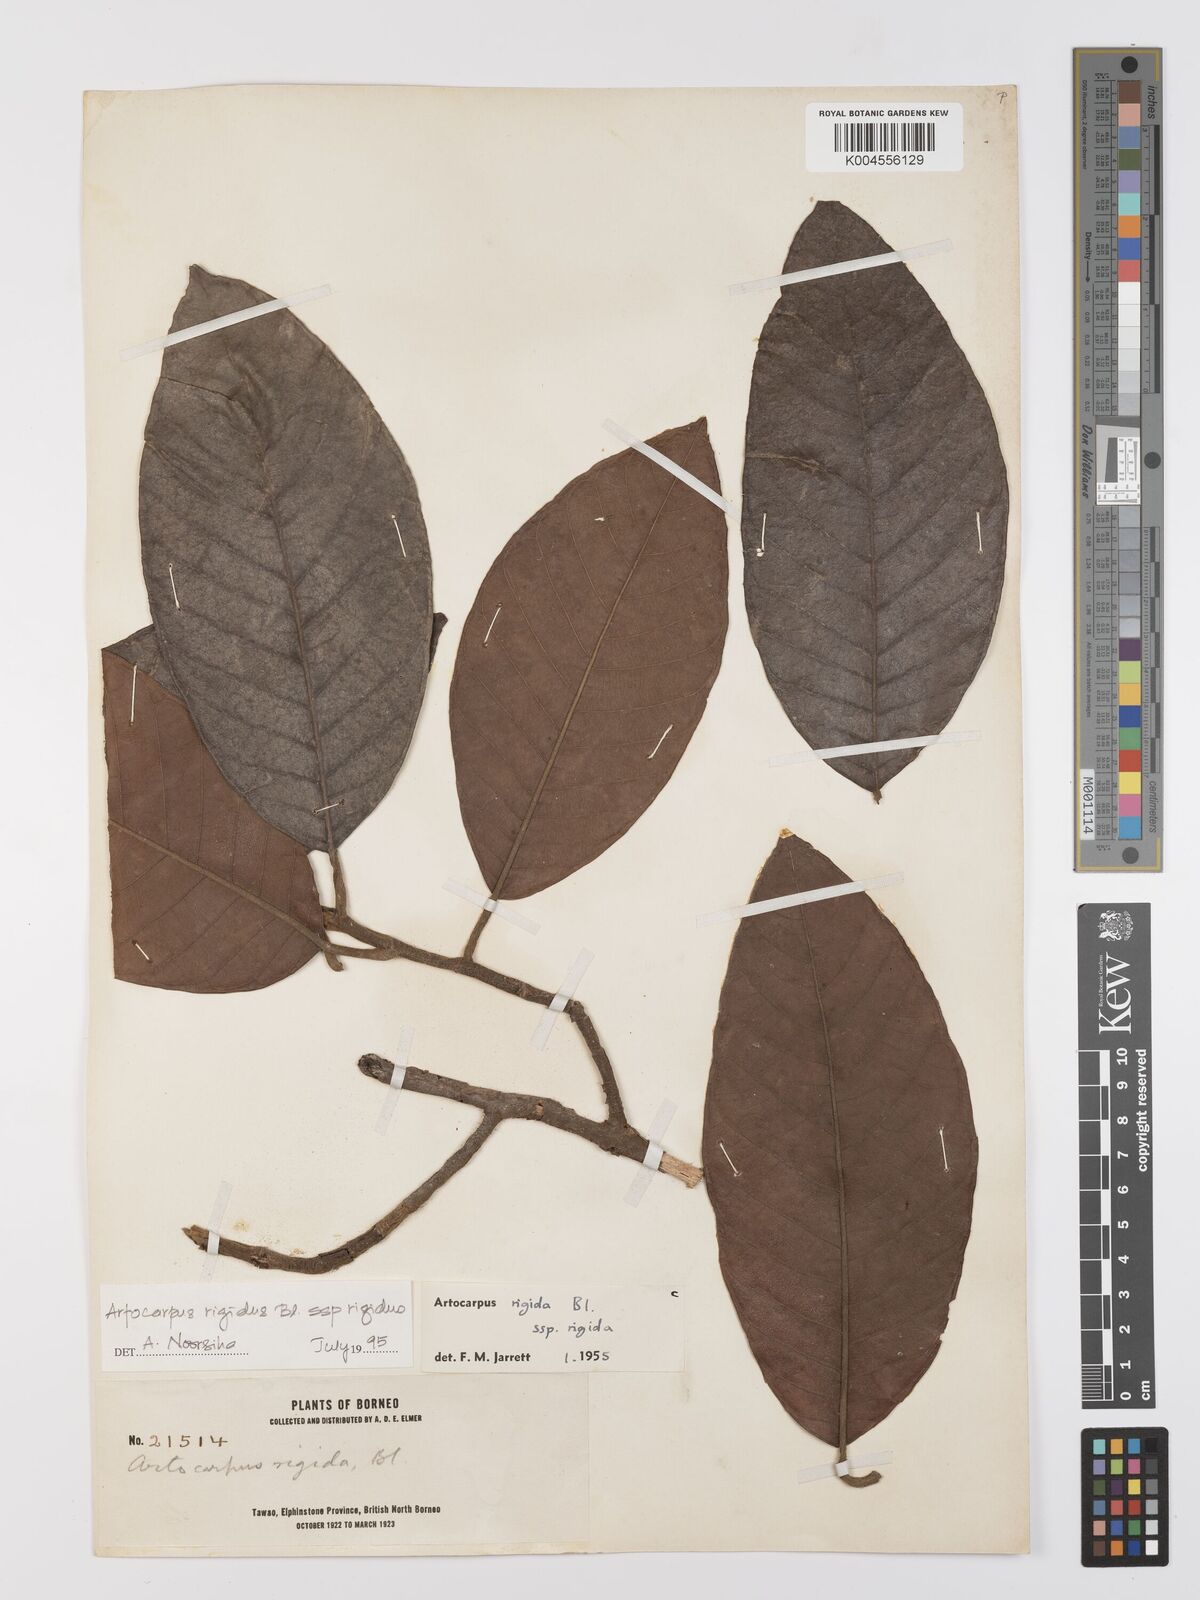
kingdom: Plantae
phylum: Tracheophyta
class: Magnoliopsida
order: Rosales
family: Moraceae
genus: Artocarpus
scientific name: Artocarpus
